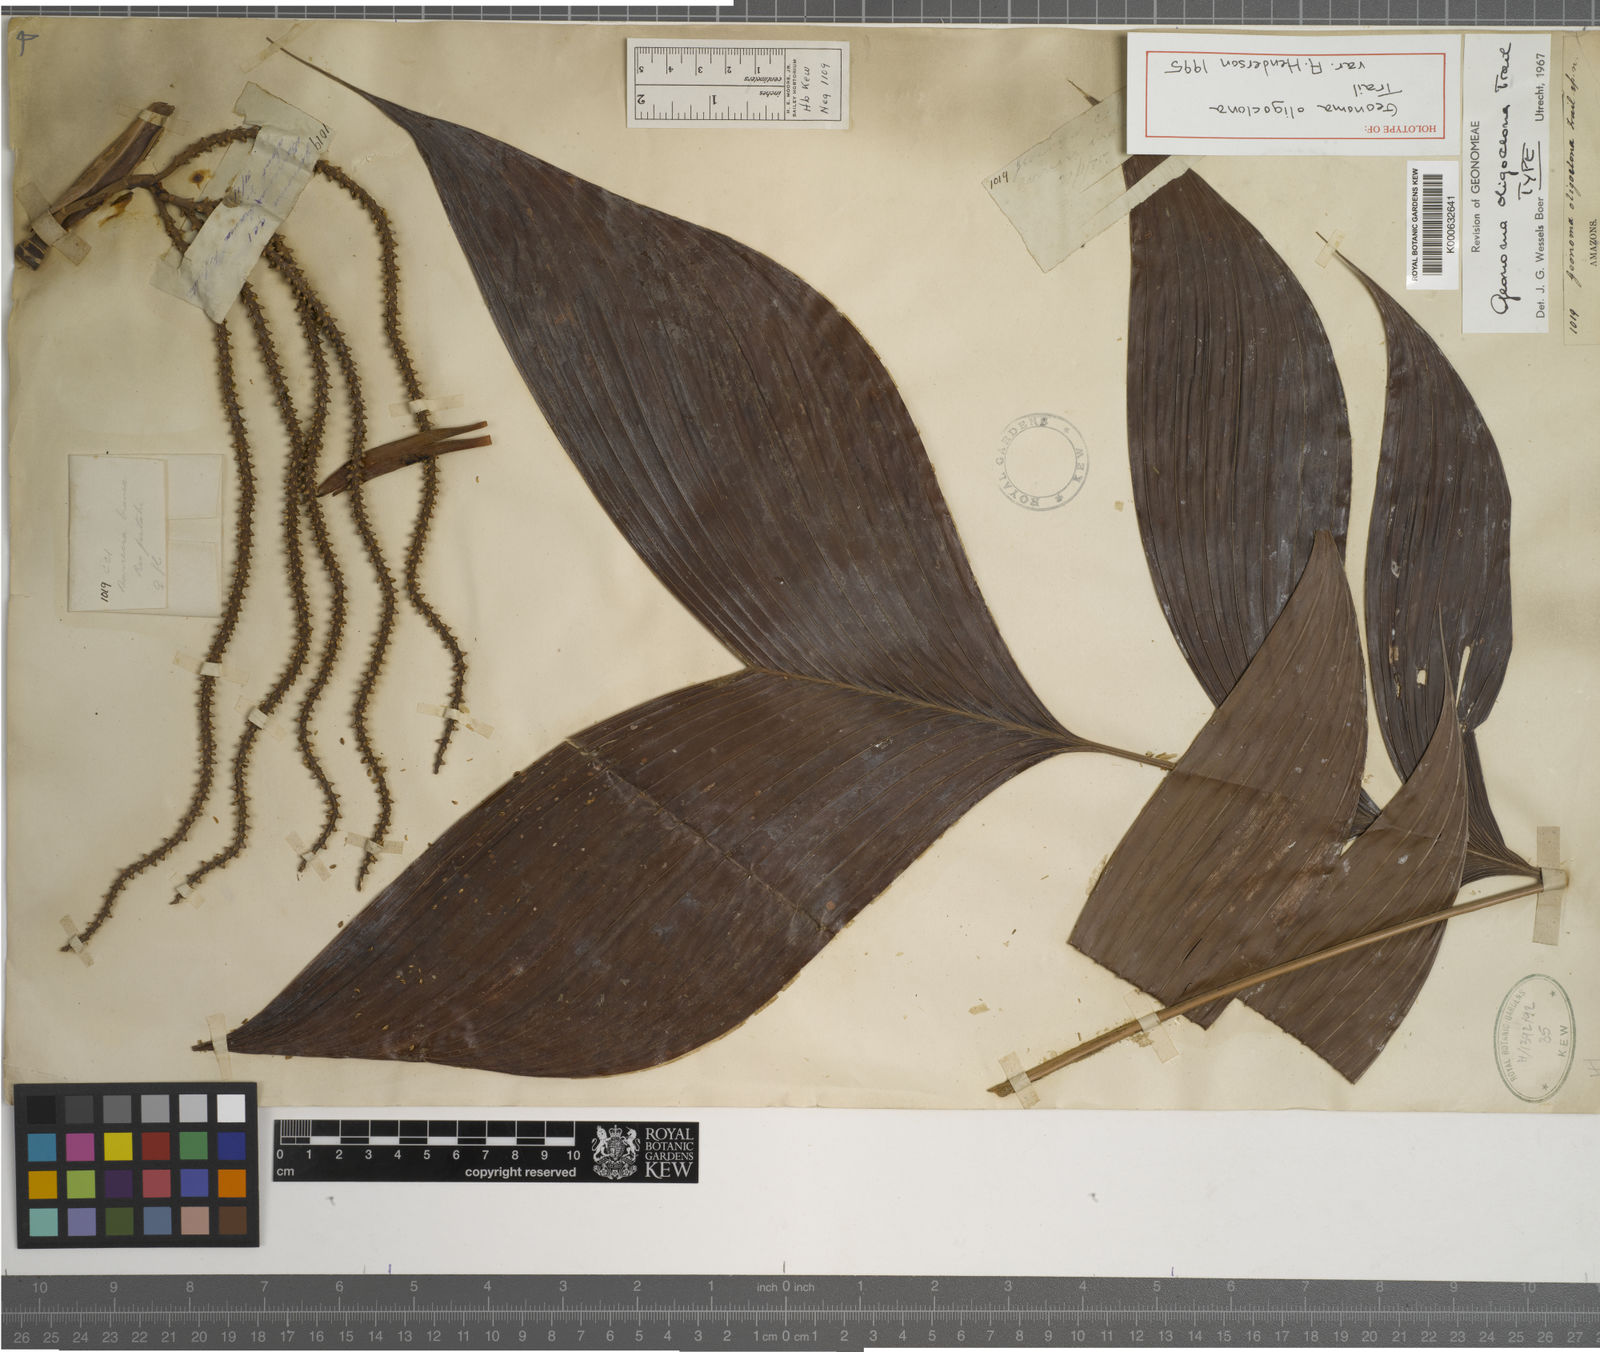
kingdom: Plantae
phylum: Tracheophyta
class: Liliopsida
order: Arecales
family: Arecaceae
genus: Geonoma
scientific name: Geonoma oligoclona
